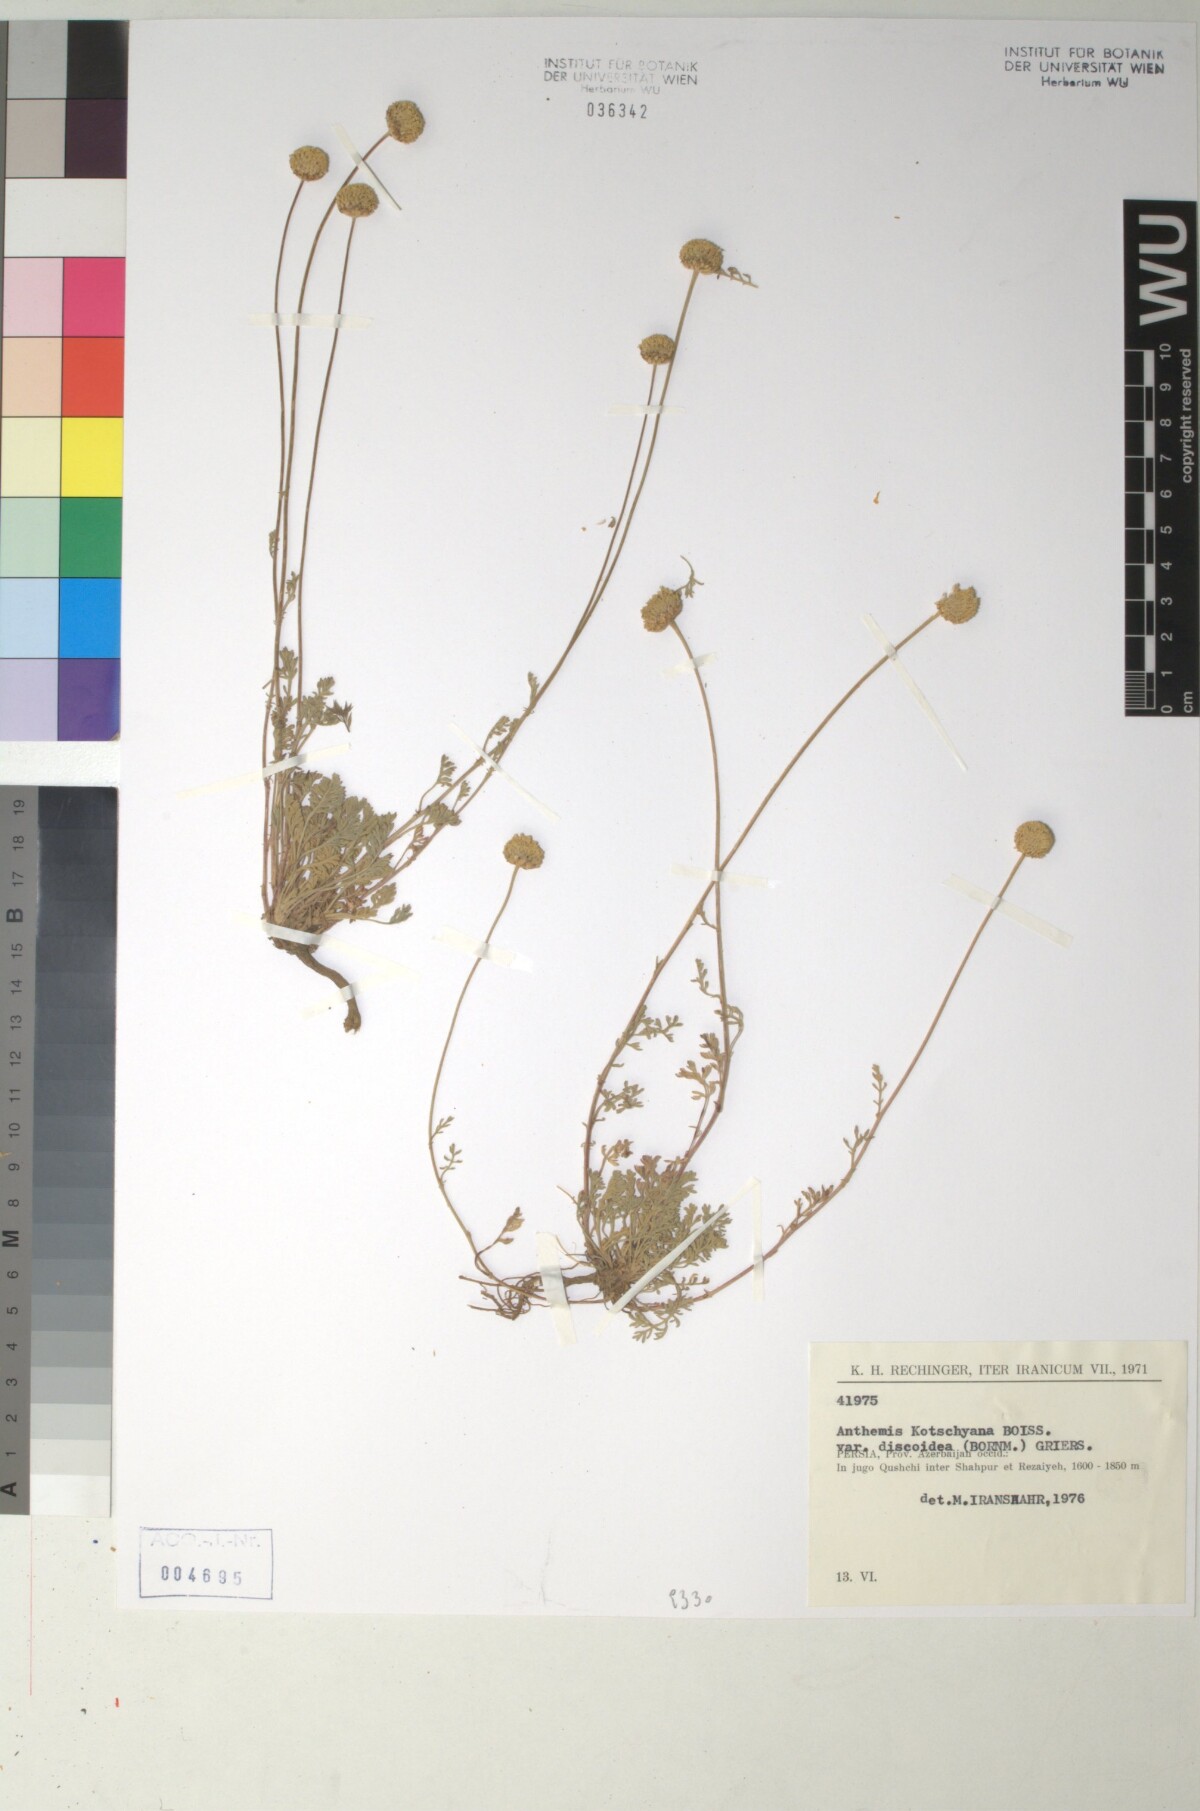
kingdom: Plantae
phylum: Tracheophyta
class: Magnoliopsida
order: Asterales
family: Asteraceae
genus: Anthemis
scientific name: Anthemis kotschyana
